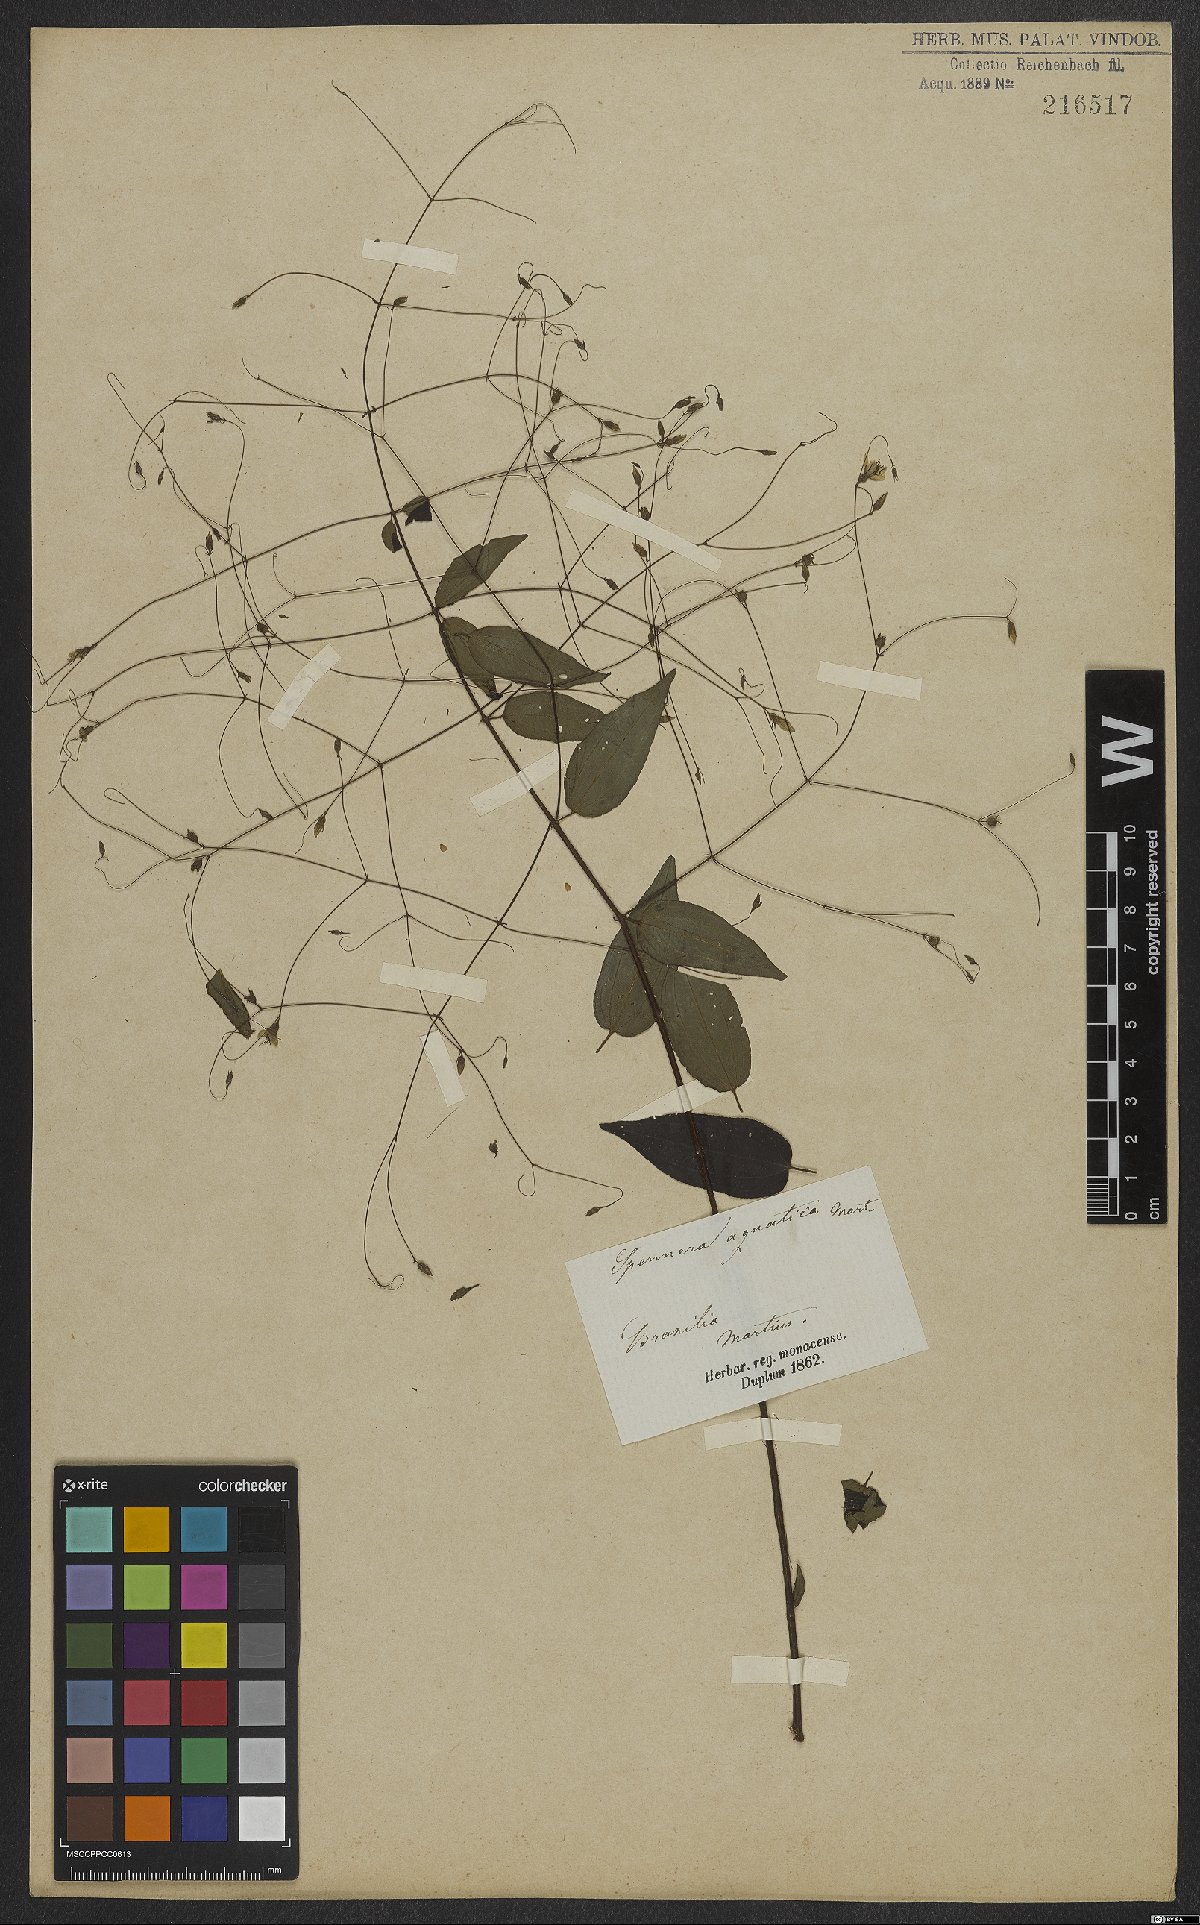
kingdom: Plantae
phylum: Tracheophyta
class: Magnoliopsida
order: Myrtales
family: Melastomataceae
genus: Nepsera
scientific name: Nepsera aquatica
